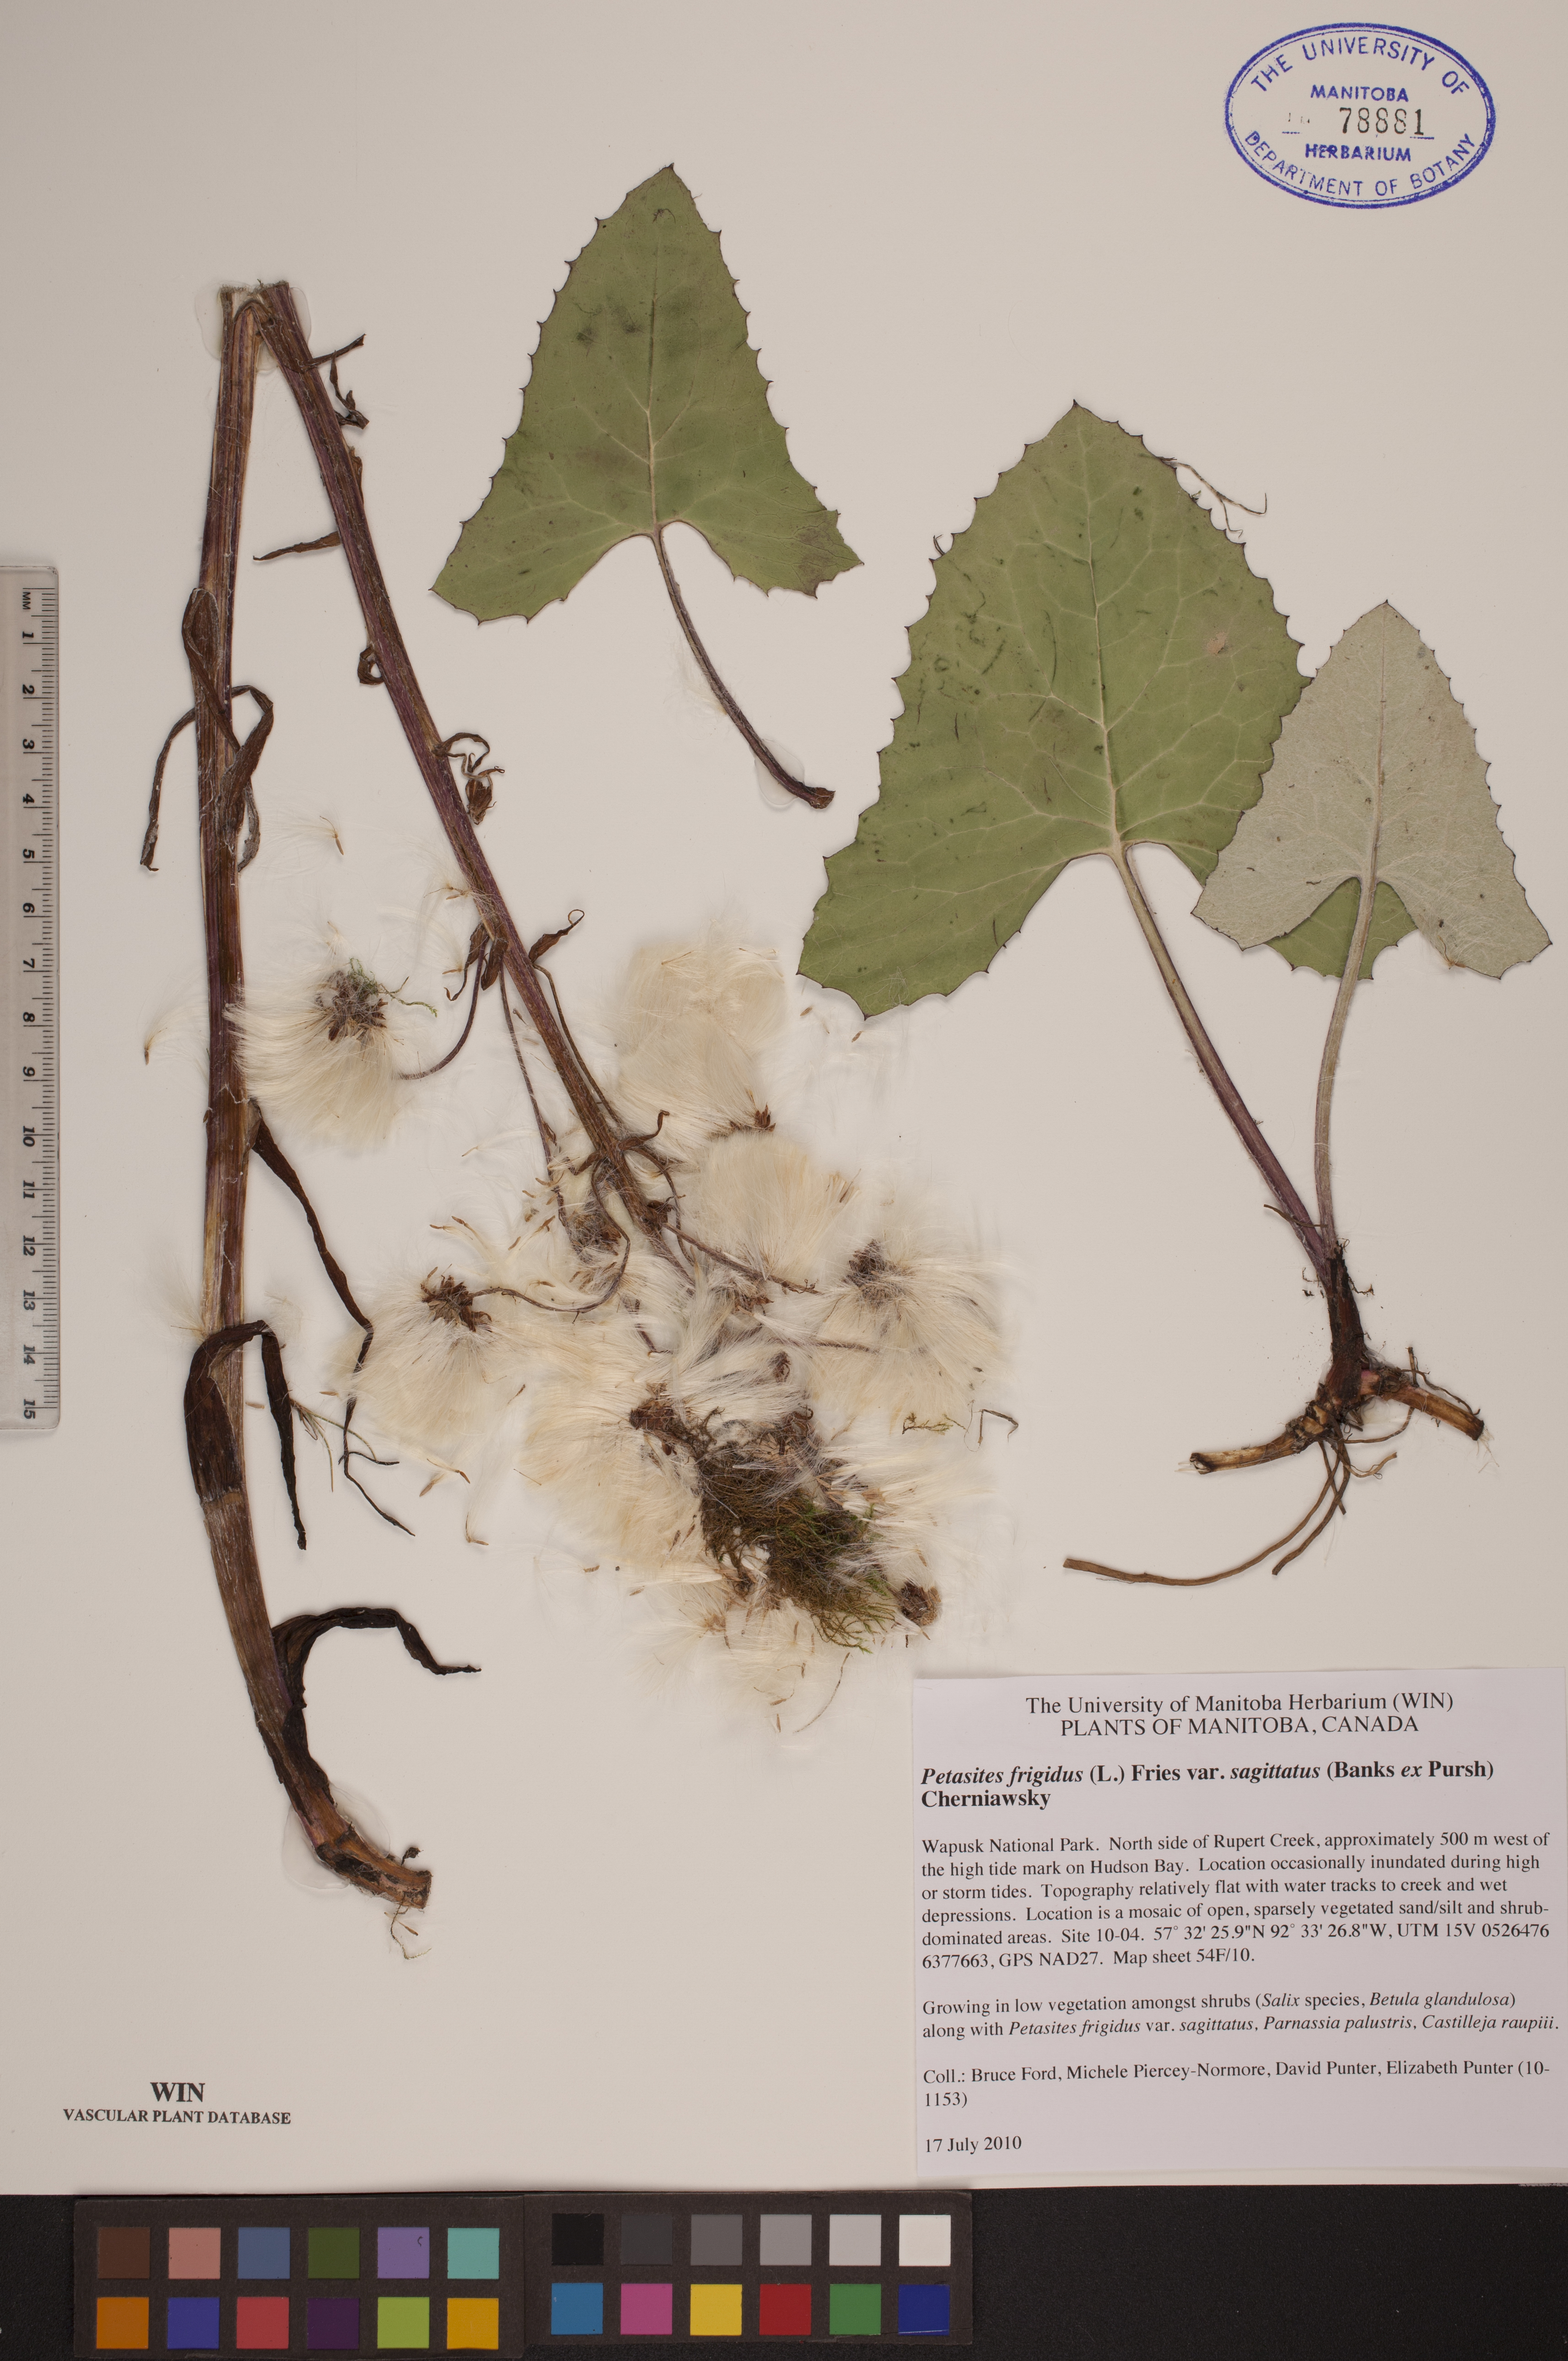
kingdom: Plantae
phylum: Tracheophyta
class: Magnoliopsida
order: Asterales
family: Asteraceae
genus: Petasites
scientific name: Petasites frigidus
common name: Arctic butterbur
